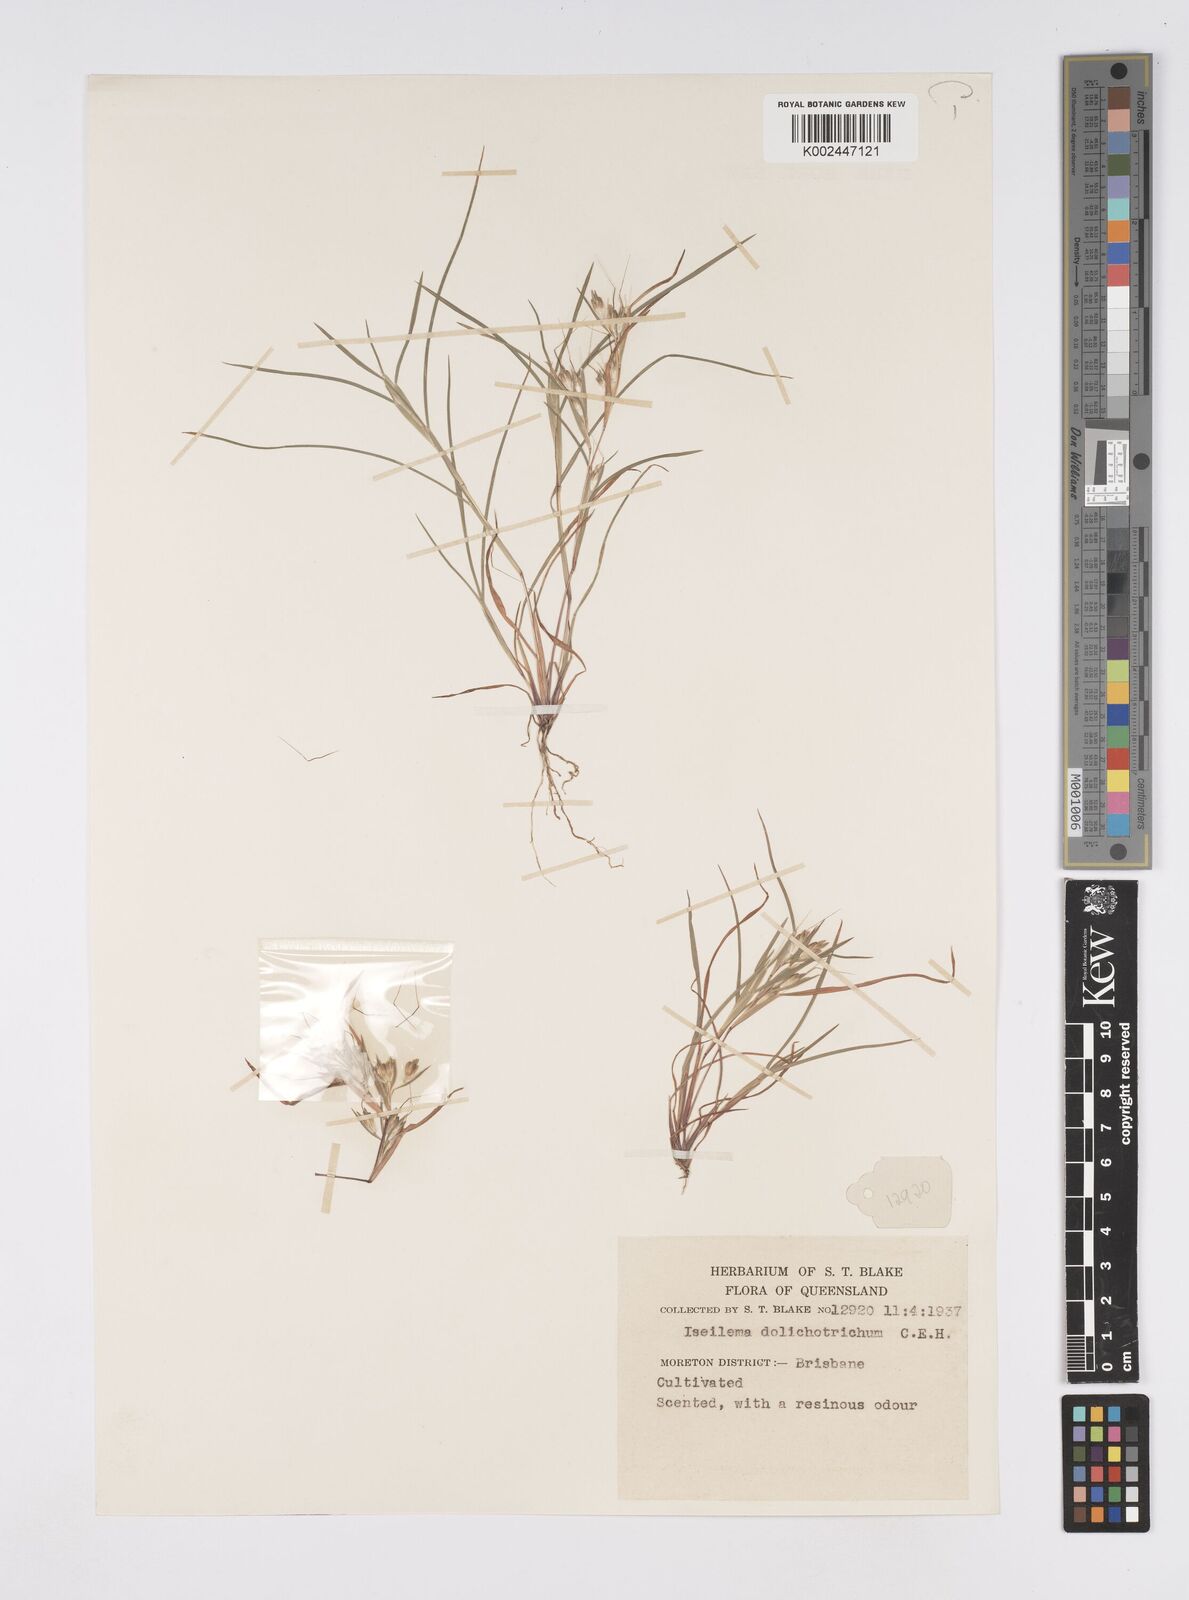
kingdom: Plantae
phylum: Tracheophyta
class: Liliopsida
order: Poales
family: Poaceae
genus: Iseilema
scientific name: Iseilema dolichotrichum
